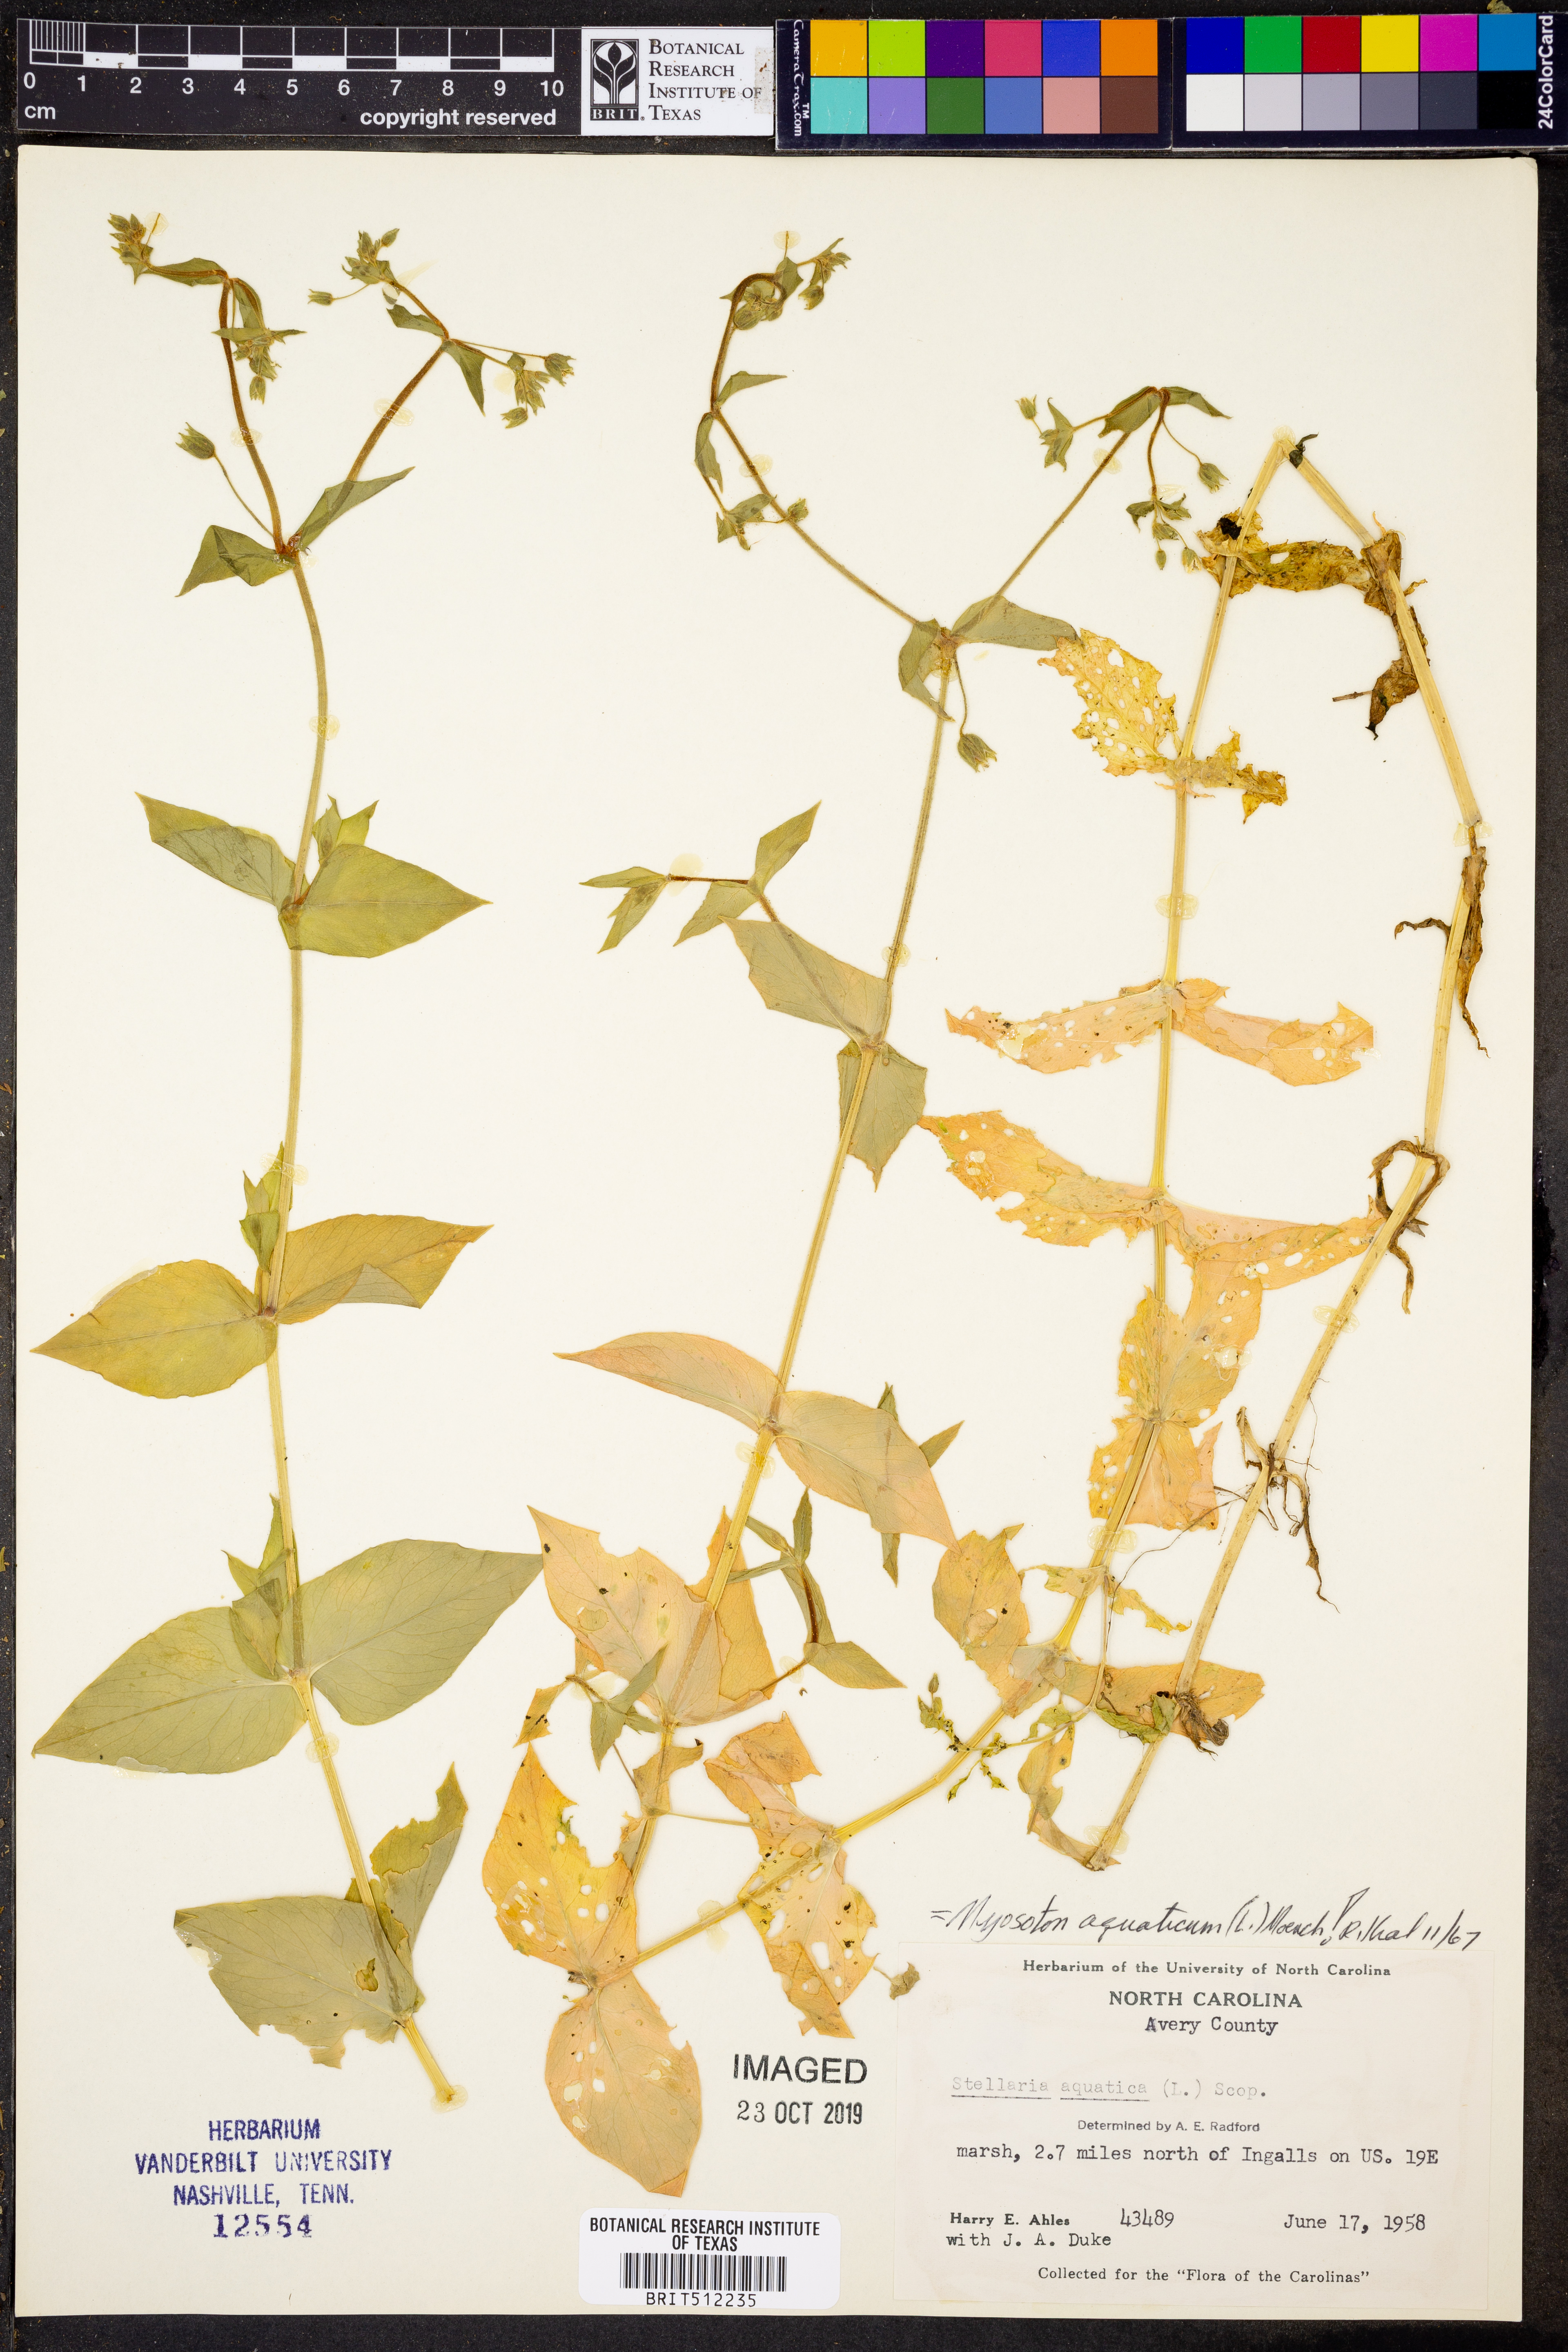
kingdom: Plantae
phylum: Tracheophyta
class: Magnoliopsida
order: Caryophyllales
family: Caryophyllaceae
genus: Stellaria
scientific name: Stellaria aquatica
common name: Water chickweed
